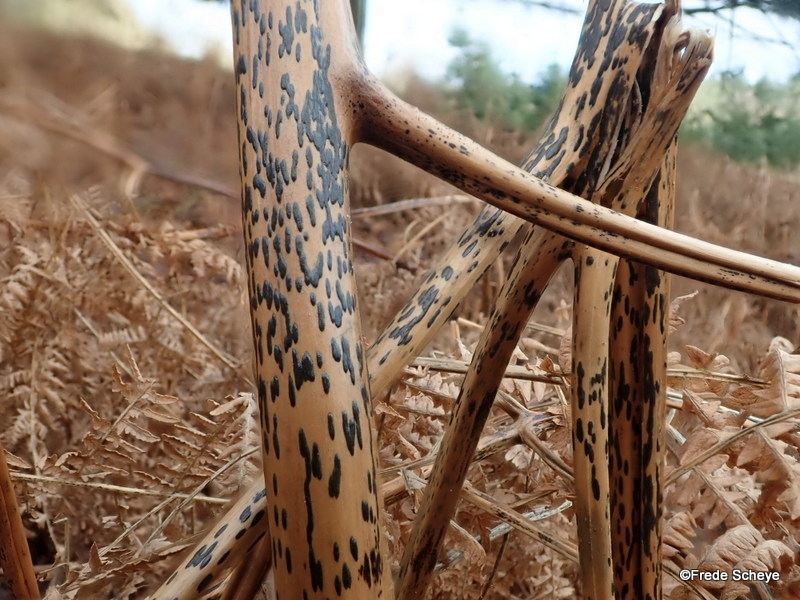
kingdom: Fungi
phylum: Ascomycota
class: Dothideomycetes
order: Pleosporales
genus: Rhopographus
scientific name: Rhopographus filicinus
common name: Bracken map
